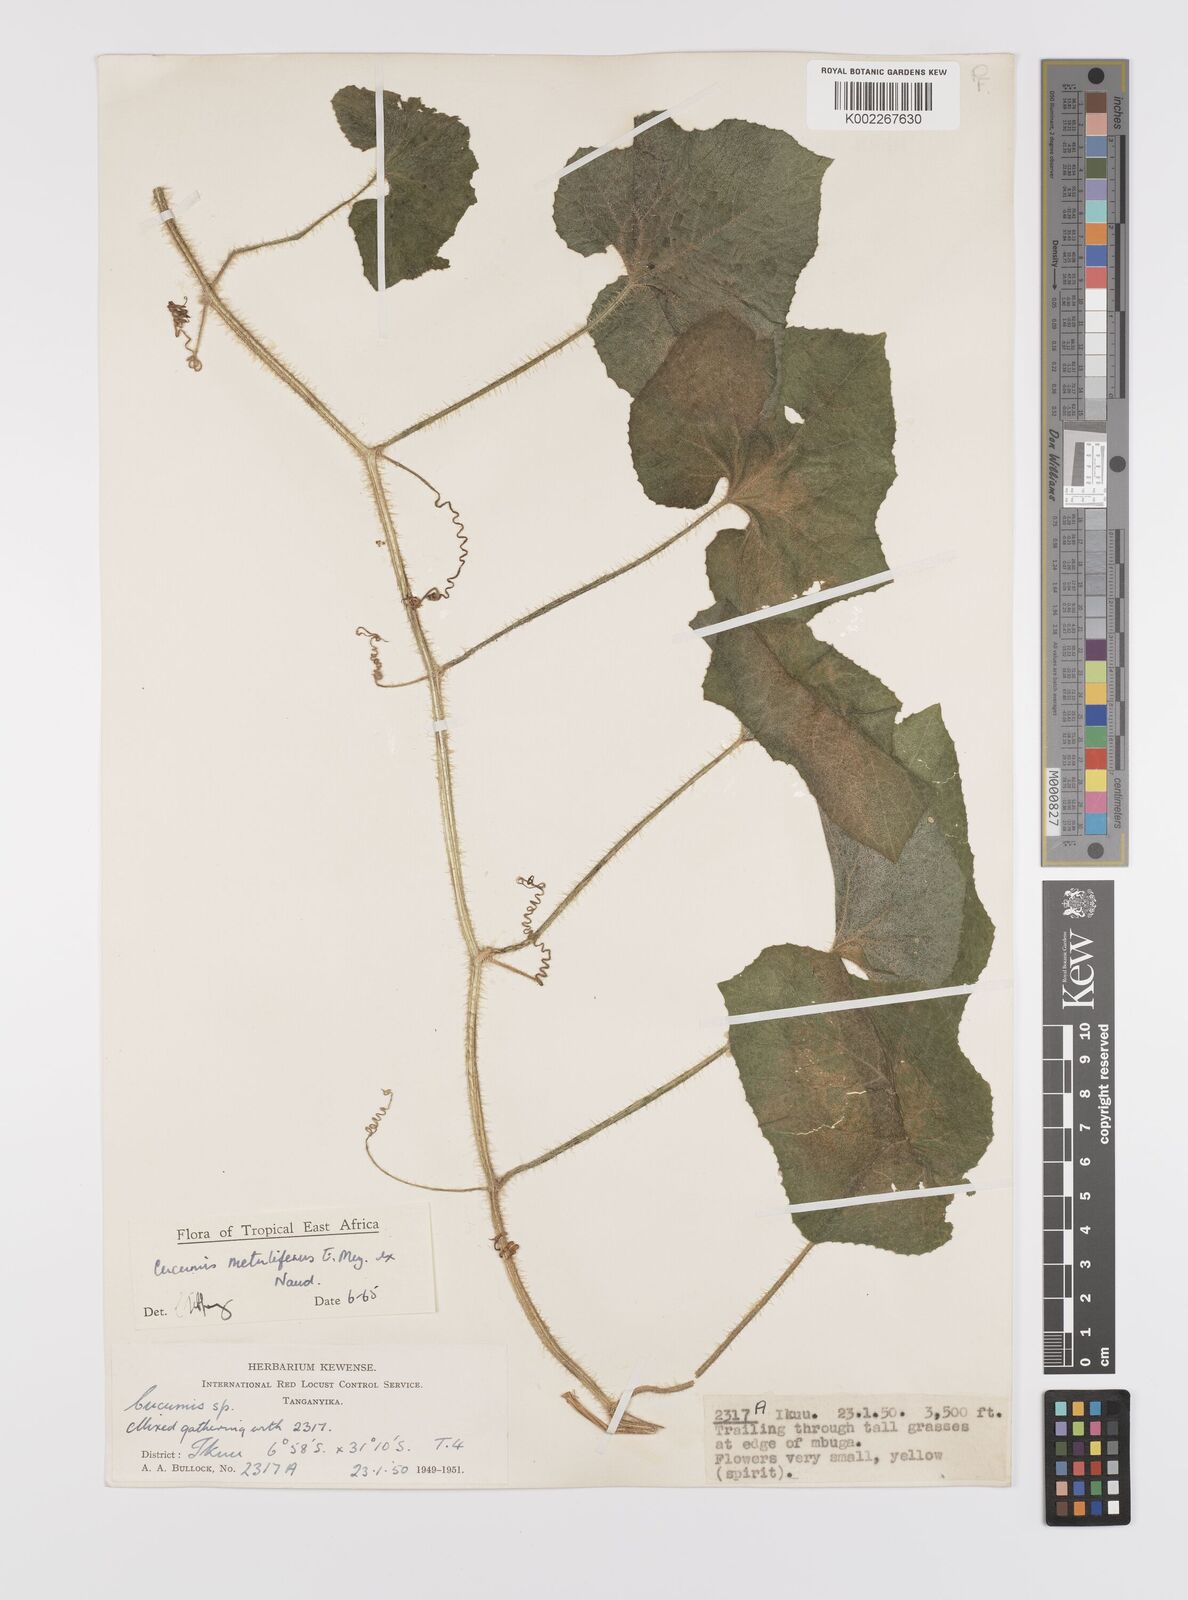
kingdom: Plantae
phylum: Tracheophyta
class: Magnoliopsida
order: Cucurbitales
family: Cucurbitaceae
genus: Cucumis
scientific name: Cucumis metuliferus
